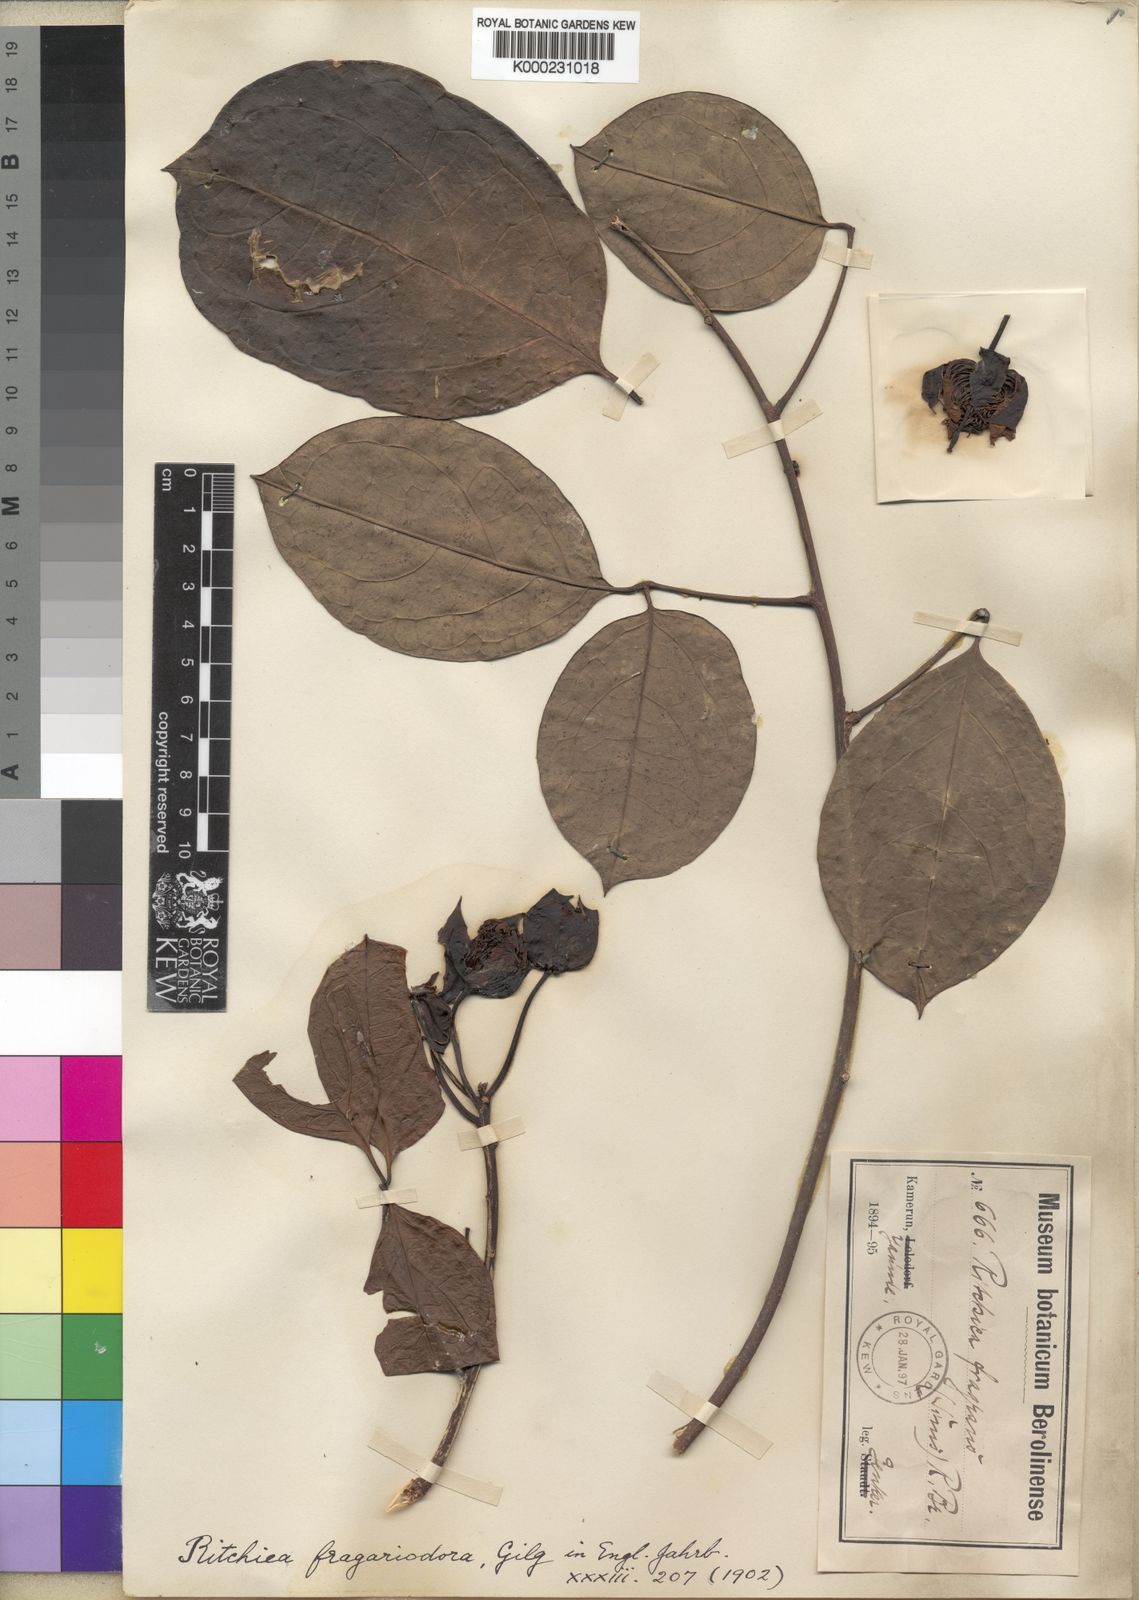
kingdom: Plantae
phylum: Tracheophyta
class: Magnoliopsida
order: Brassicales
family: Capparaceae
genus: Ritchiea
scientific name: Ritchiea capparoides
